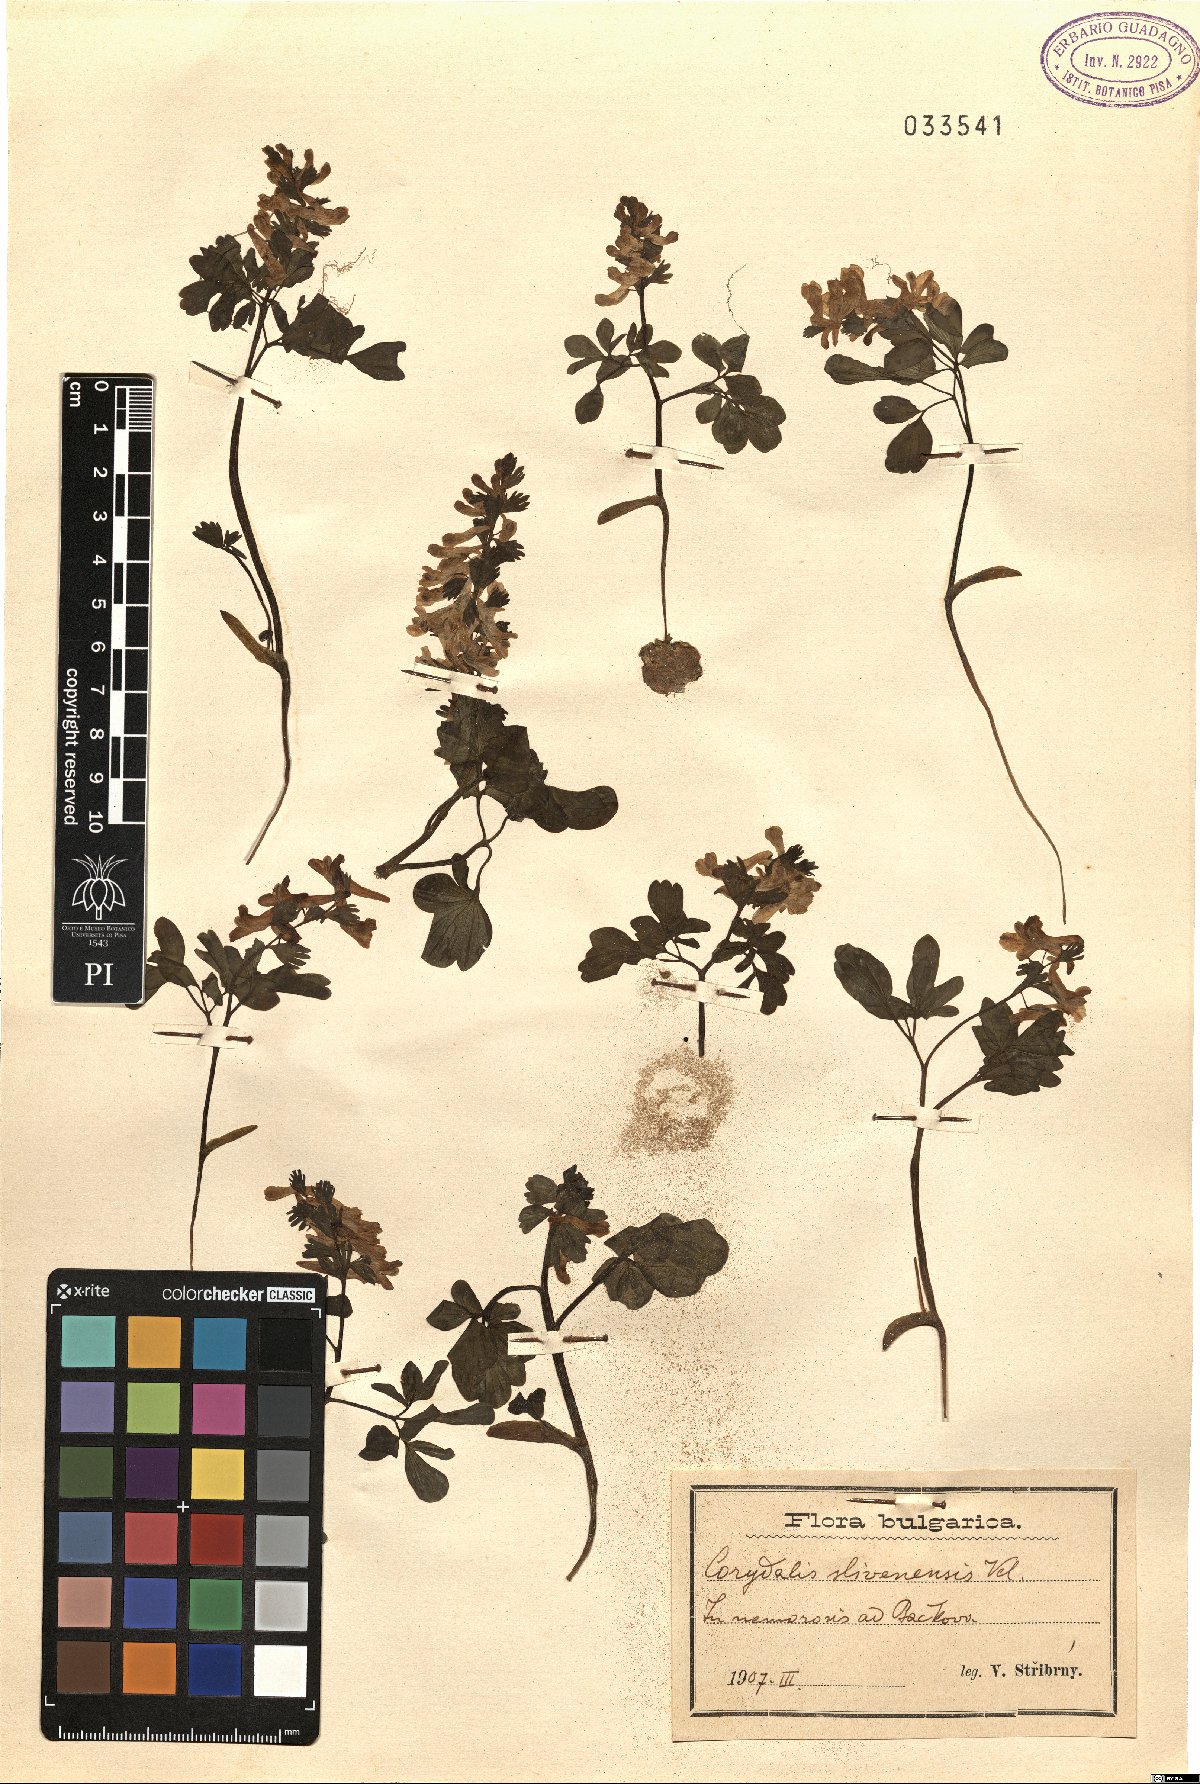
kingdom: Plantae
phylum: Tracheophyta
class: Magnoliopsida
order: Ranunculales
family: Papaveraceae
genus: Corydalis
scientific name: Corydalis solida
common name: Bird-in-a-bush
